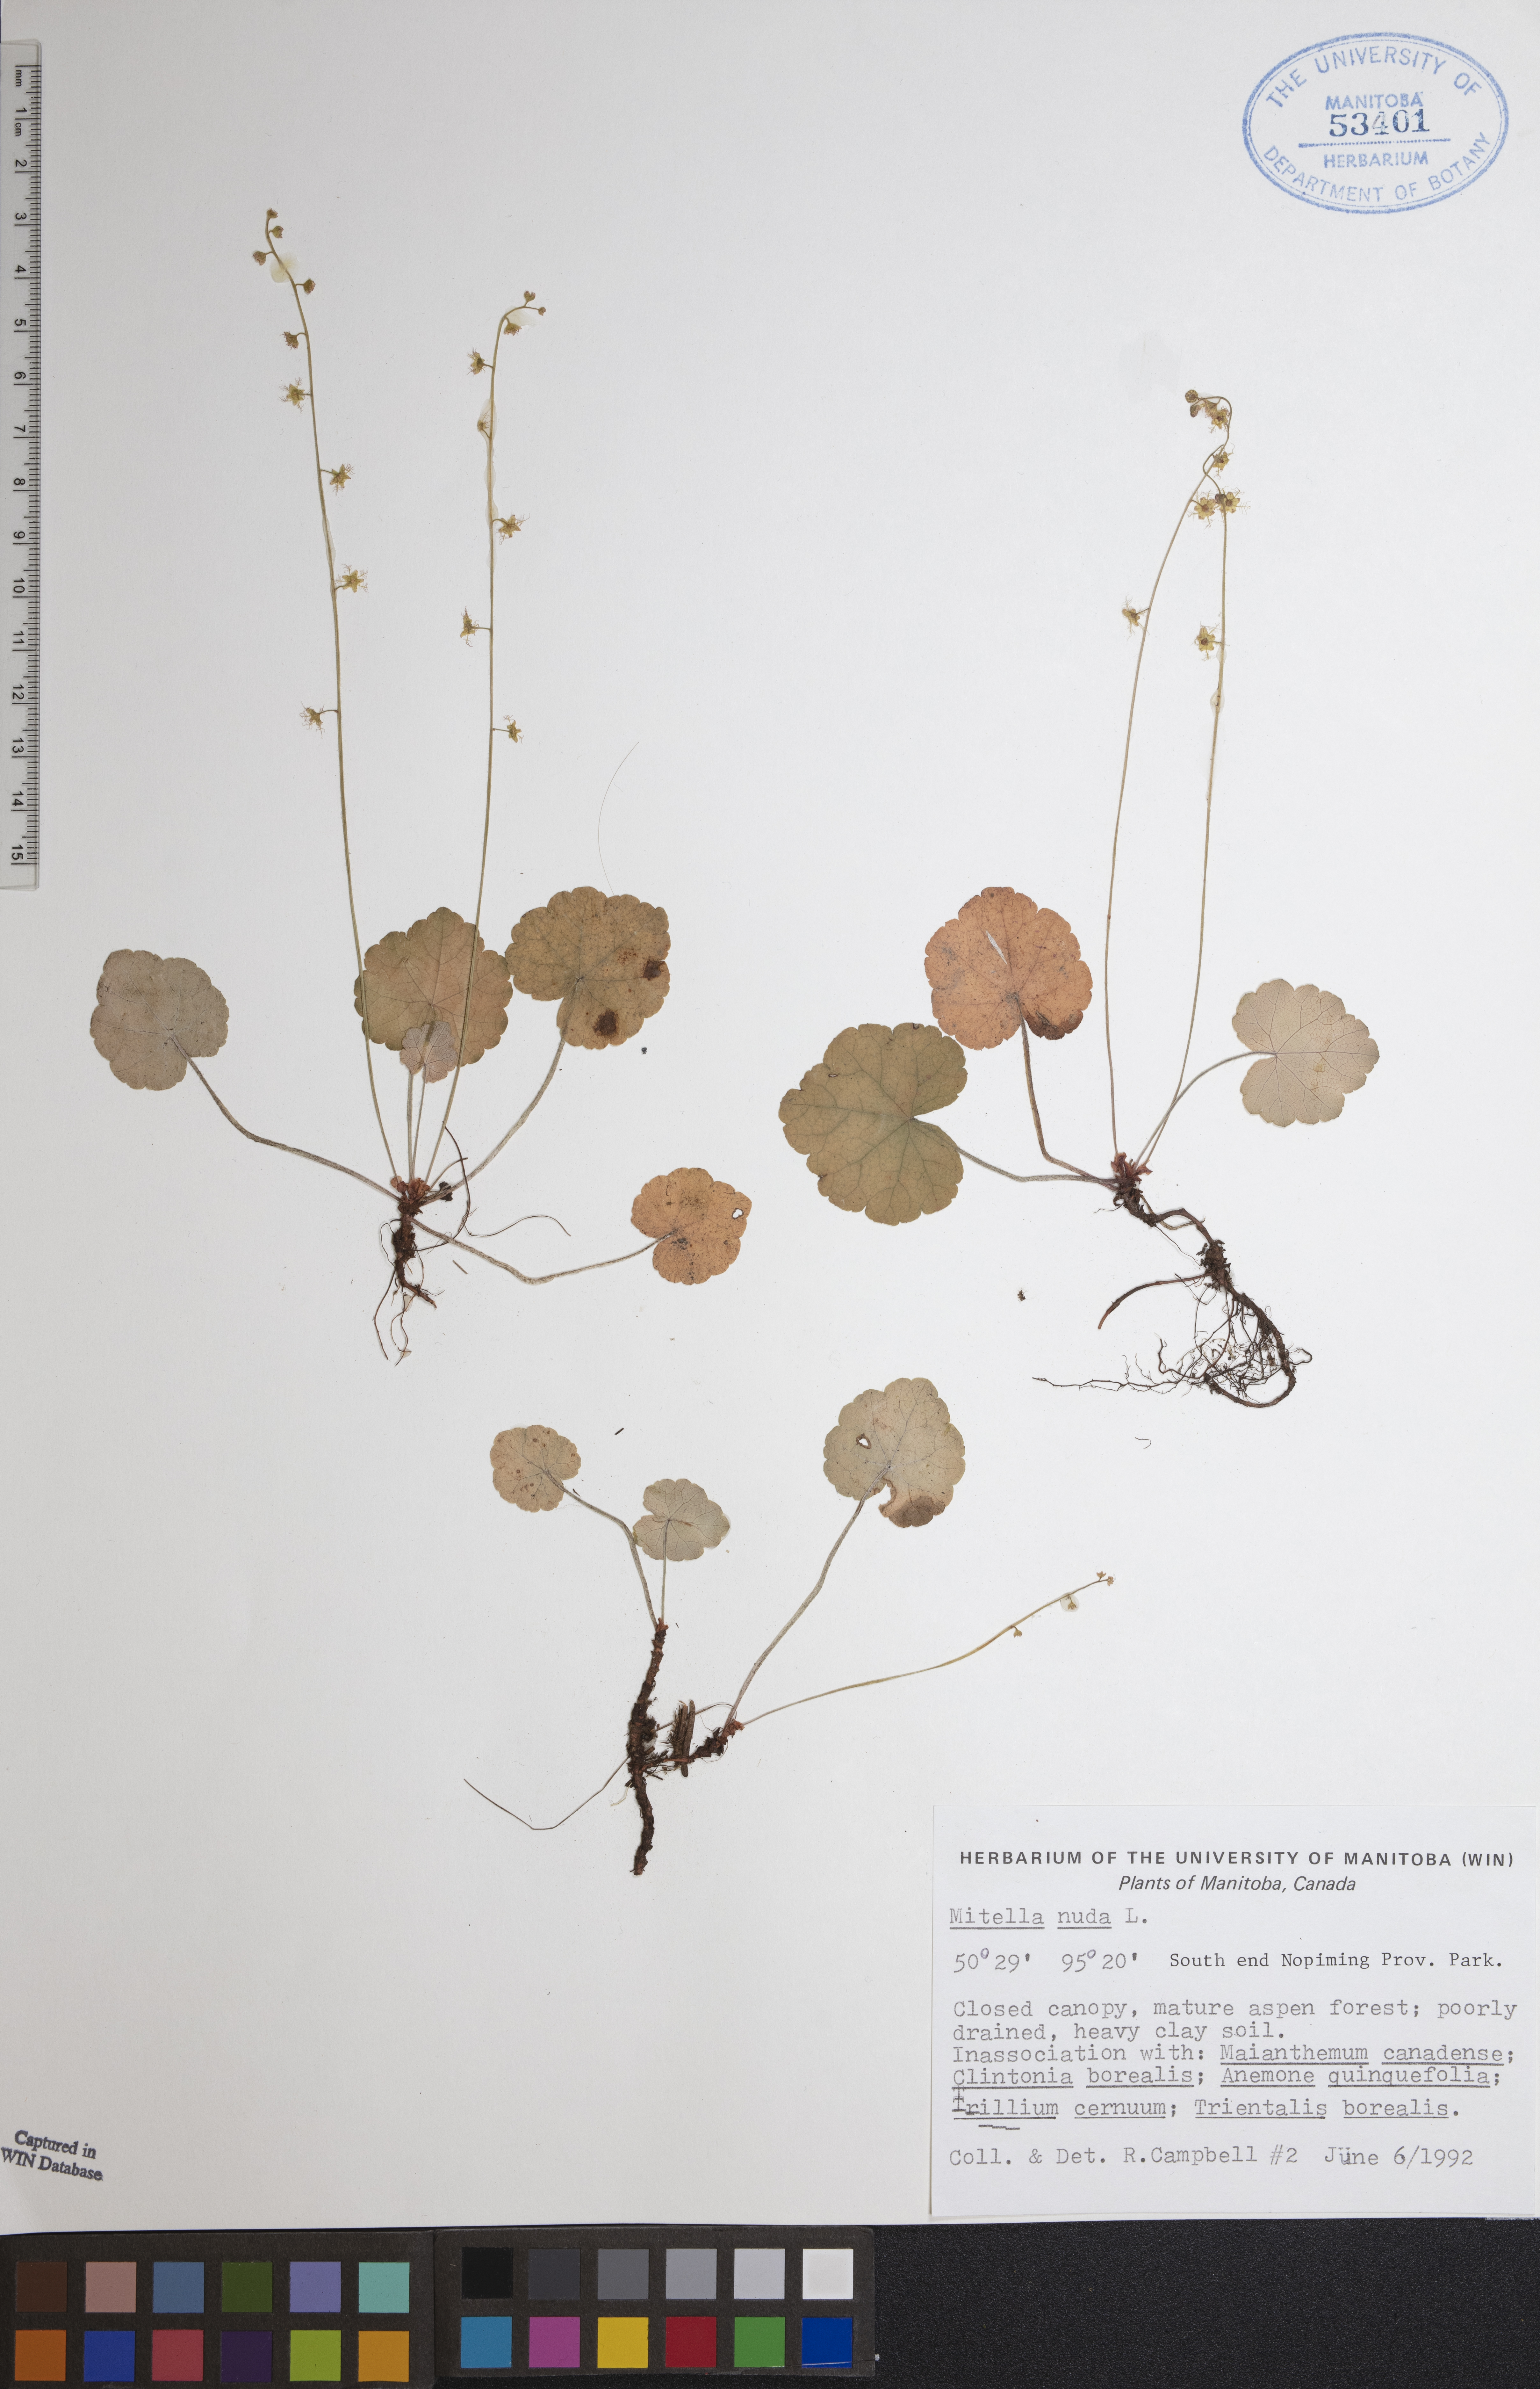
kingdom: Plantae
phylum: Tracheophyta
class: Magnoliopsida
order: Saxifragales
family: Saxifragaceae
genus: Mitella
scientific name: Mitella nuda
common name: Bare-stemmed bishop's-cap
